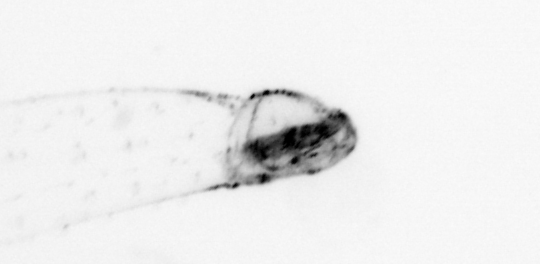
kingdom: Animalia
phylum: Chaetognatha
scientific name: Chaetognatha
